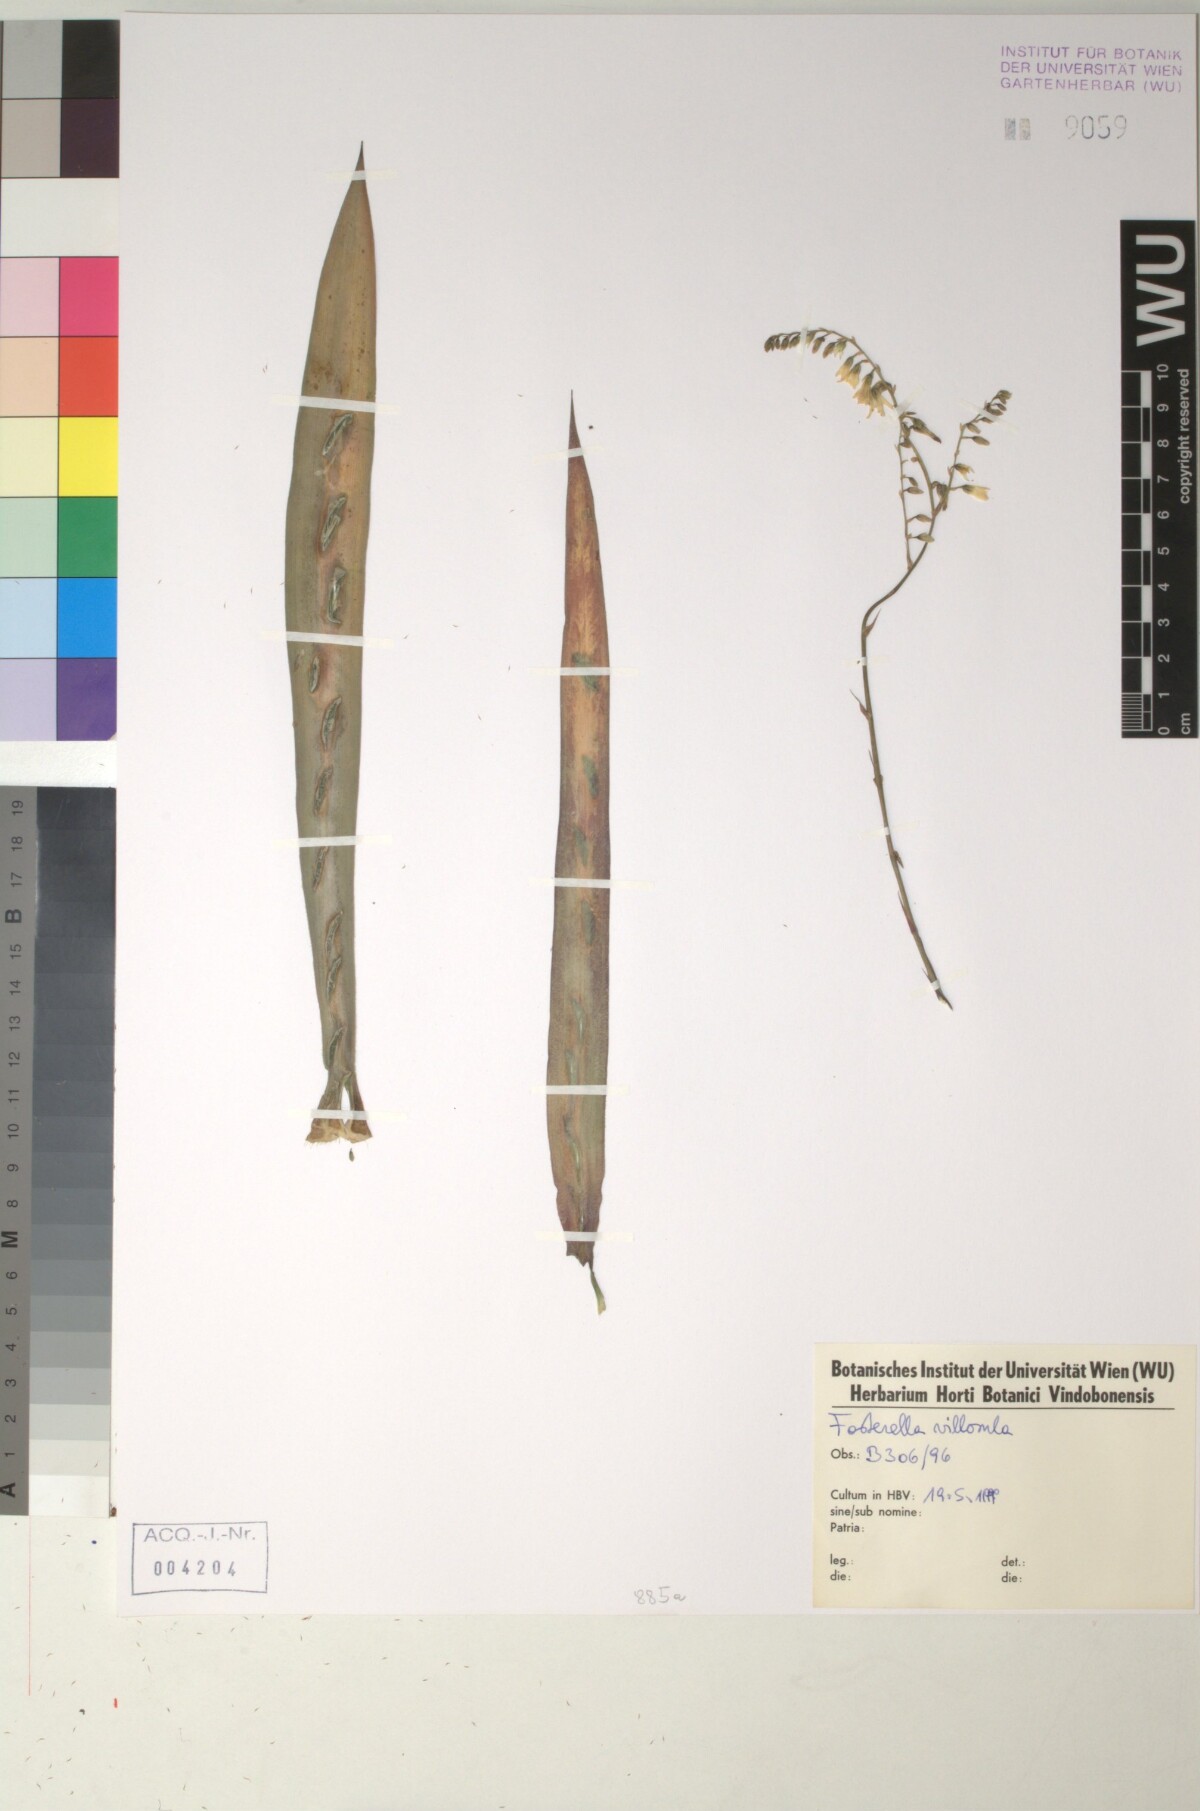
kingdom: Plantae
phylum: Tracheophyta
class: Liliopsida
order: Poales
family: Bromeliaceae
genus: Fosterella
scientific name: Fosterella penduliflora
